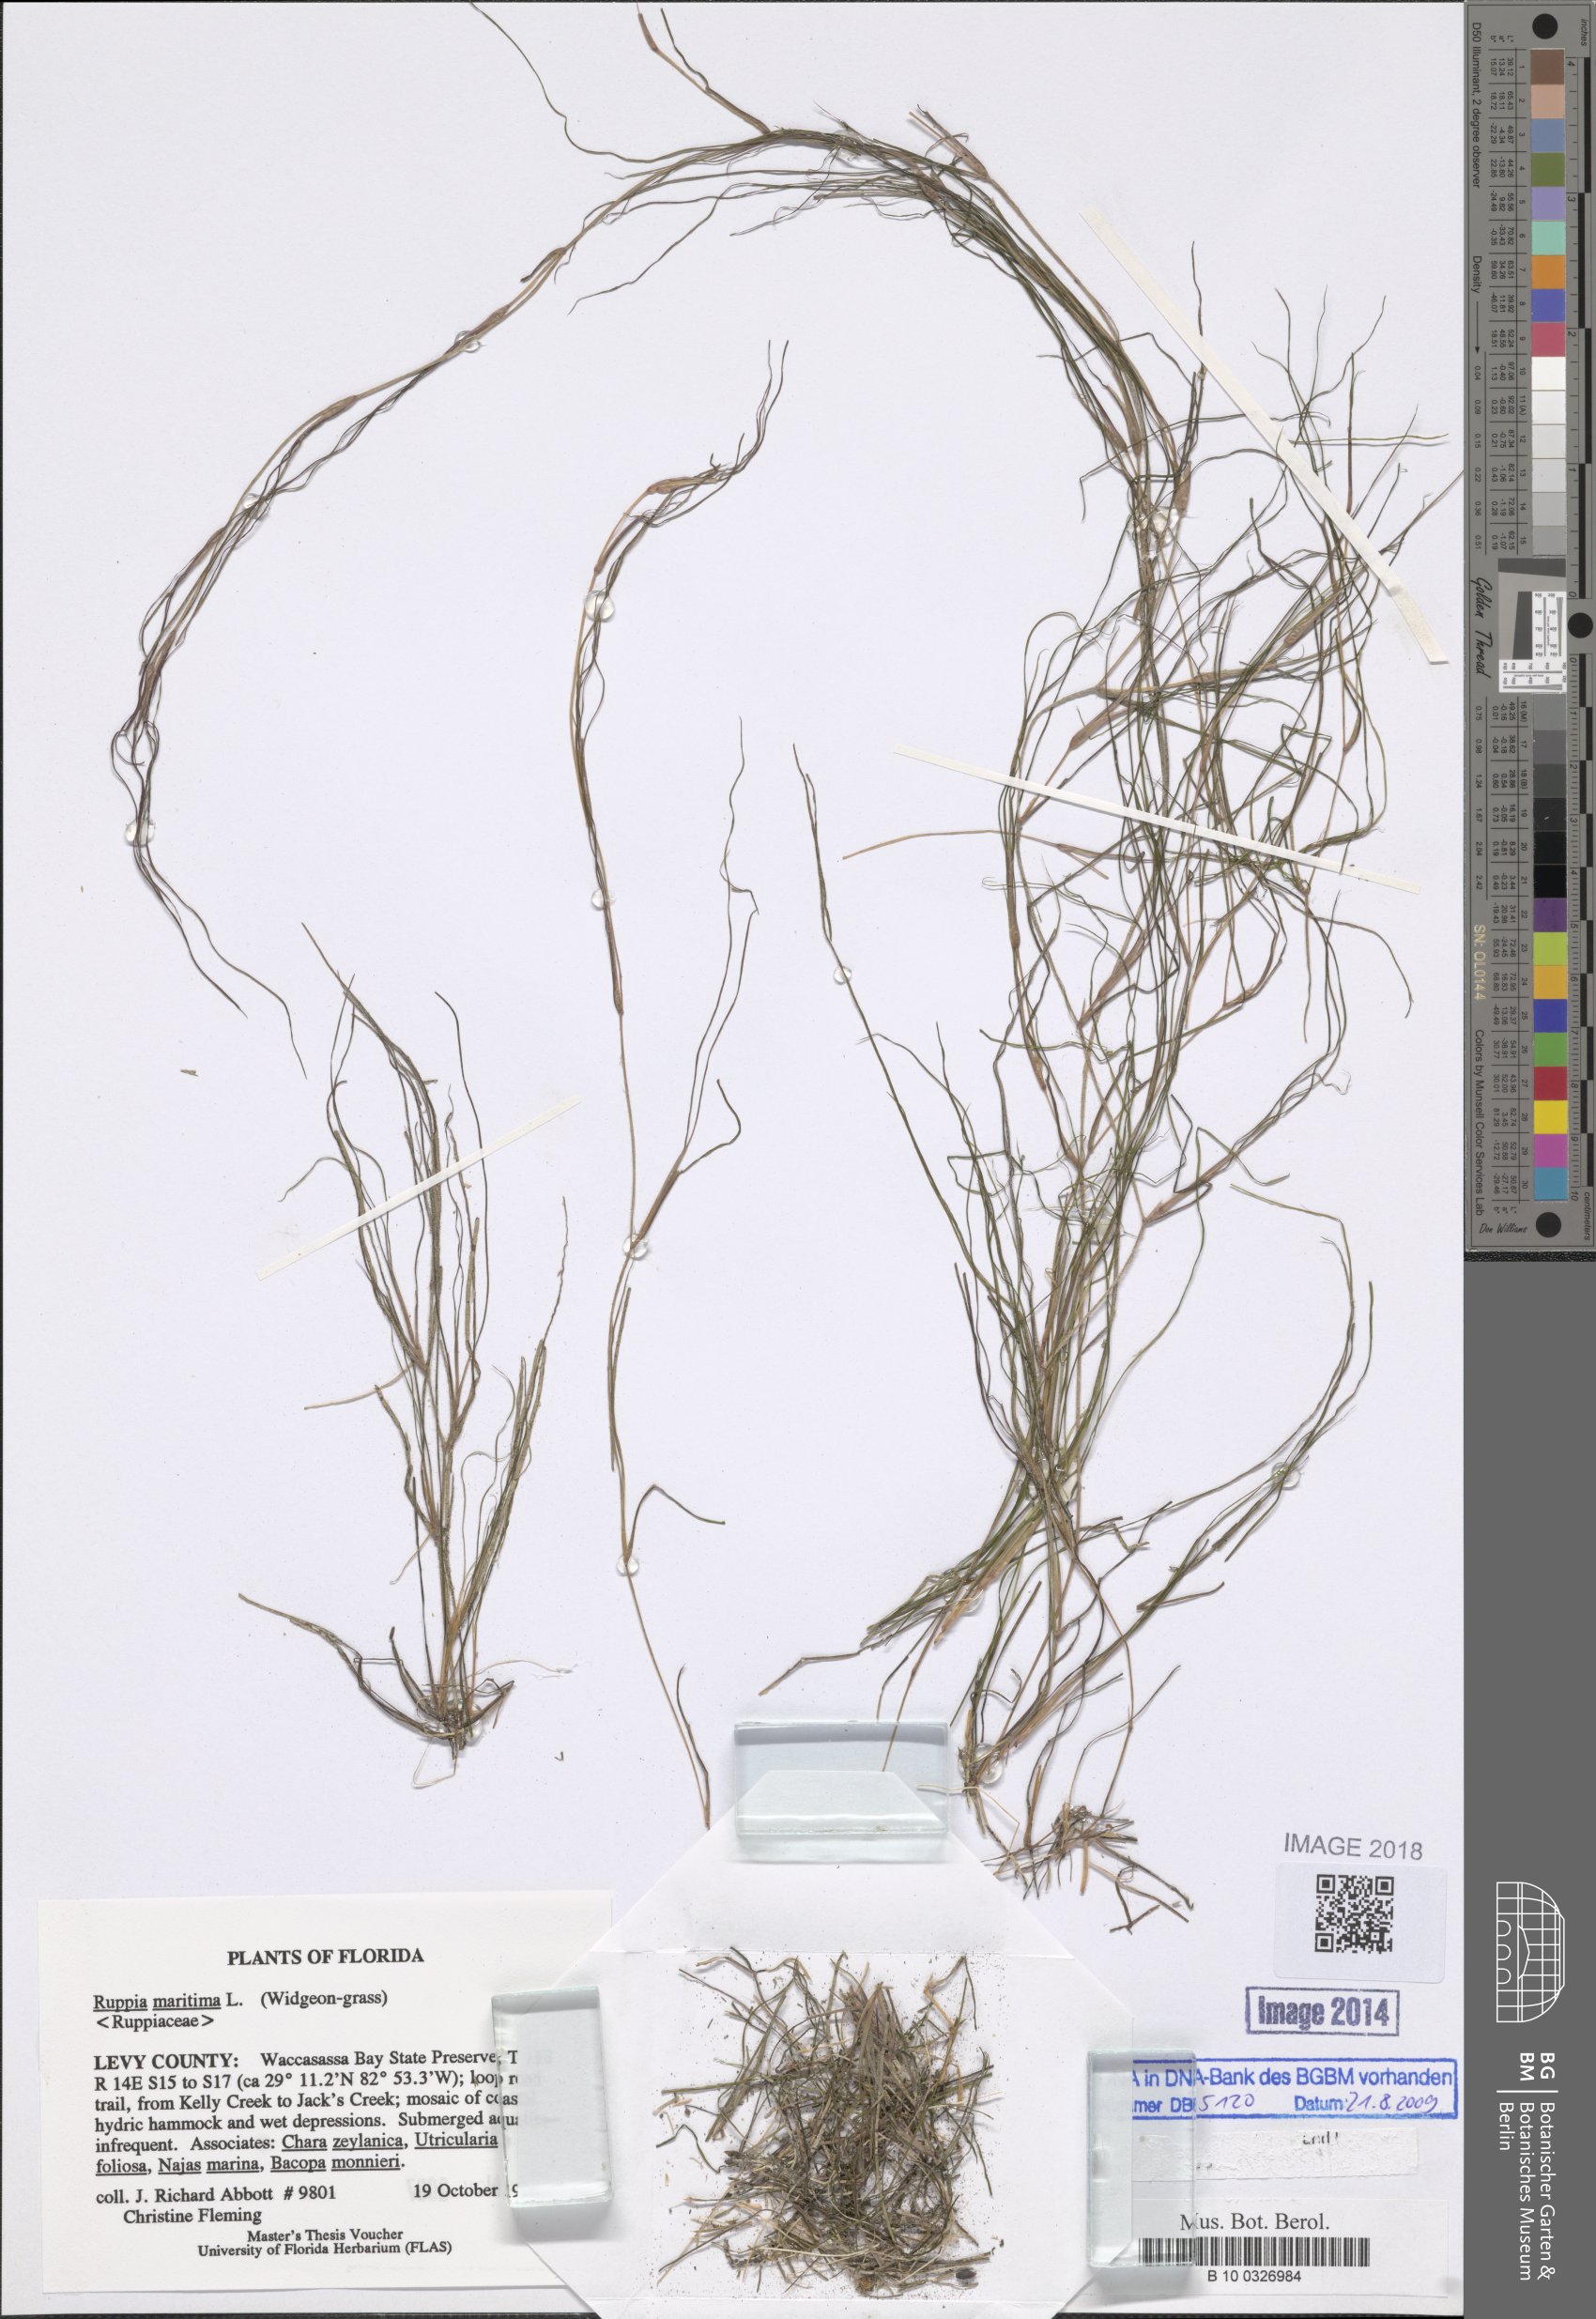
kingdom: Plantae
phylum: Tracheophyta
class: Liliopsida
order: Alismatales
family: Ruppiaceae
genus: Ruppia
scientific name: Ruppia maritima
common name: Beaked tasselweed
